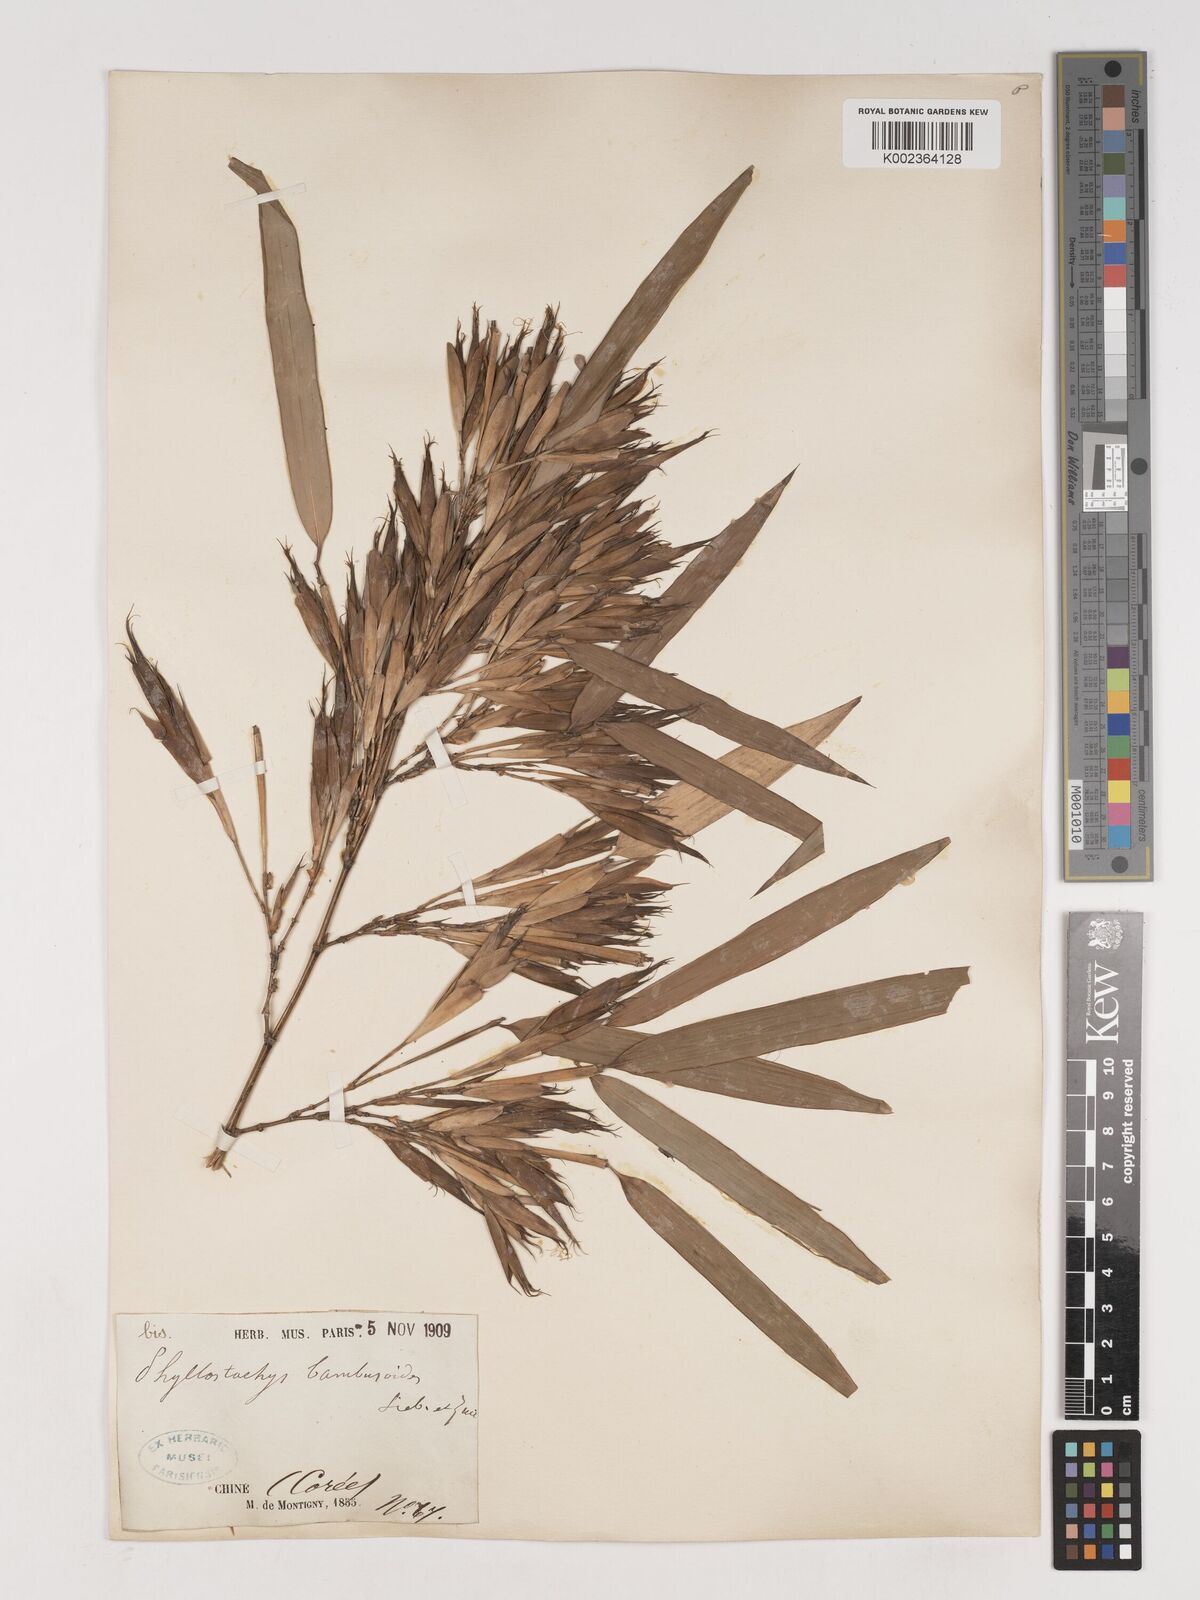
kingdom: Plantae
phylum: Tracheophyta
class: Liliopsida
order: Poales
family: Poaceae
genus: Phyllostachys
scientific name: Phyllostachys reticulata
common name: Bamboo
